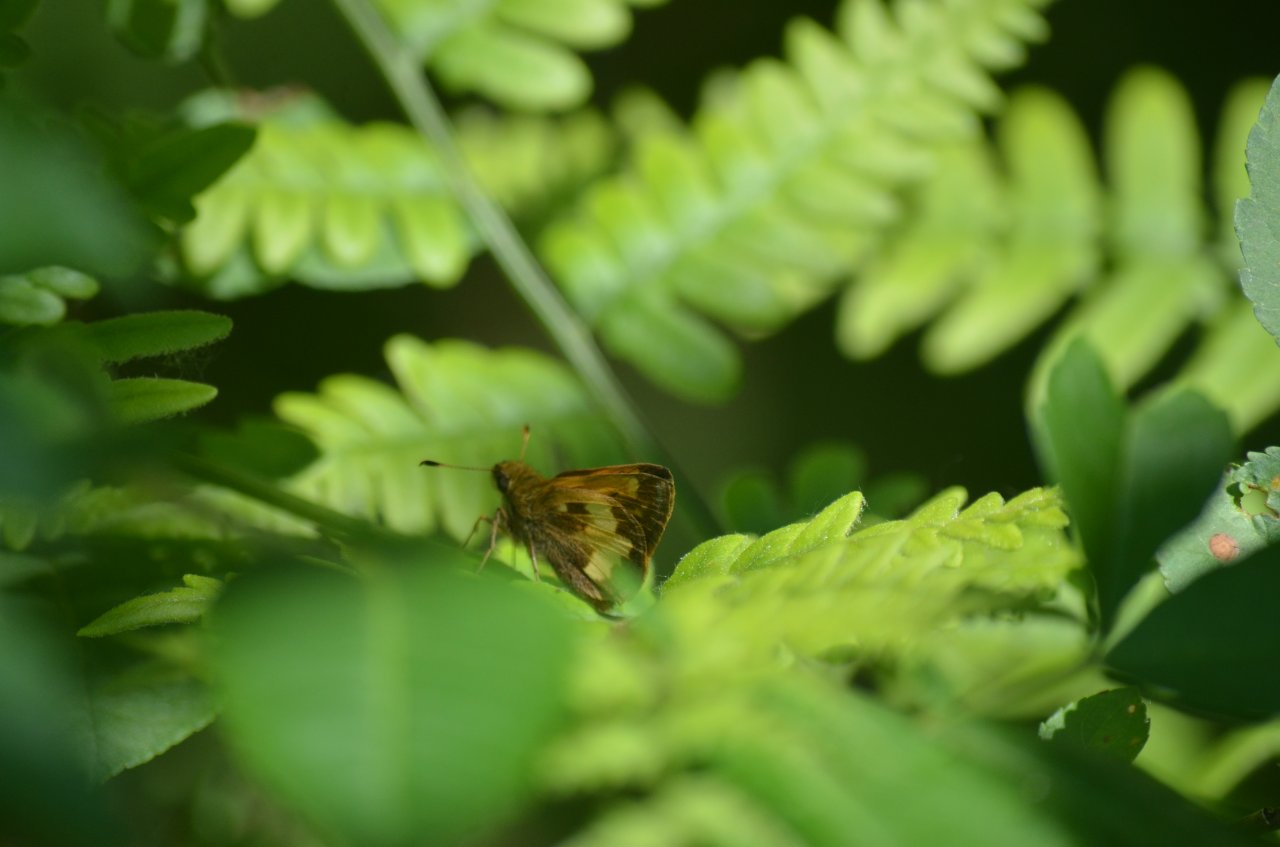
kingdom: Animalia
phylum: Arthropoda
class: Insecta
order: Lepidoptera
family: Hesperiidae
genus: Lon
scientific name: Lon hobomok
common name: Hobomok Skipper
